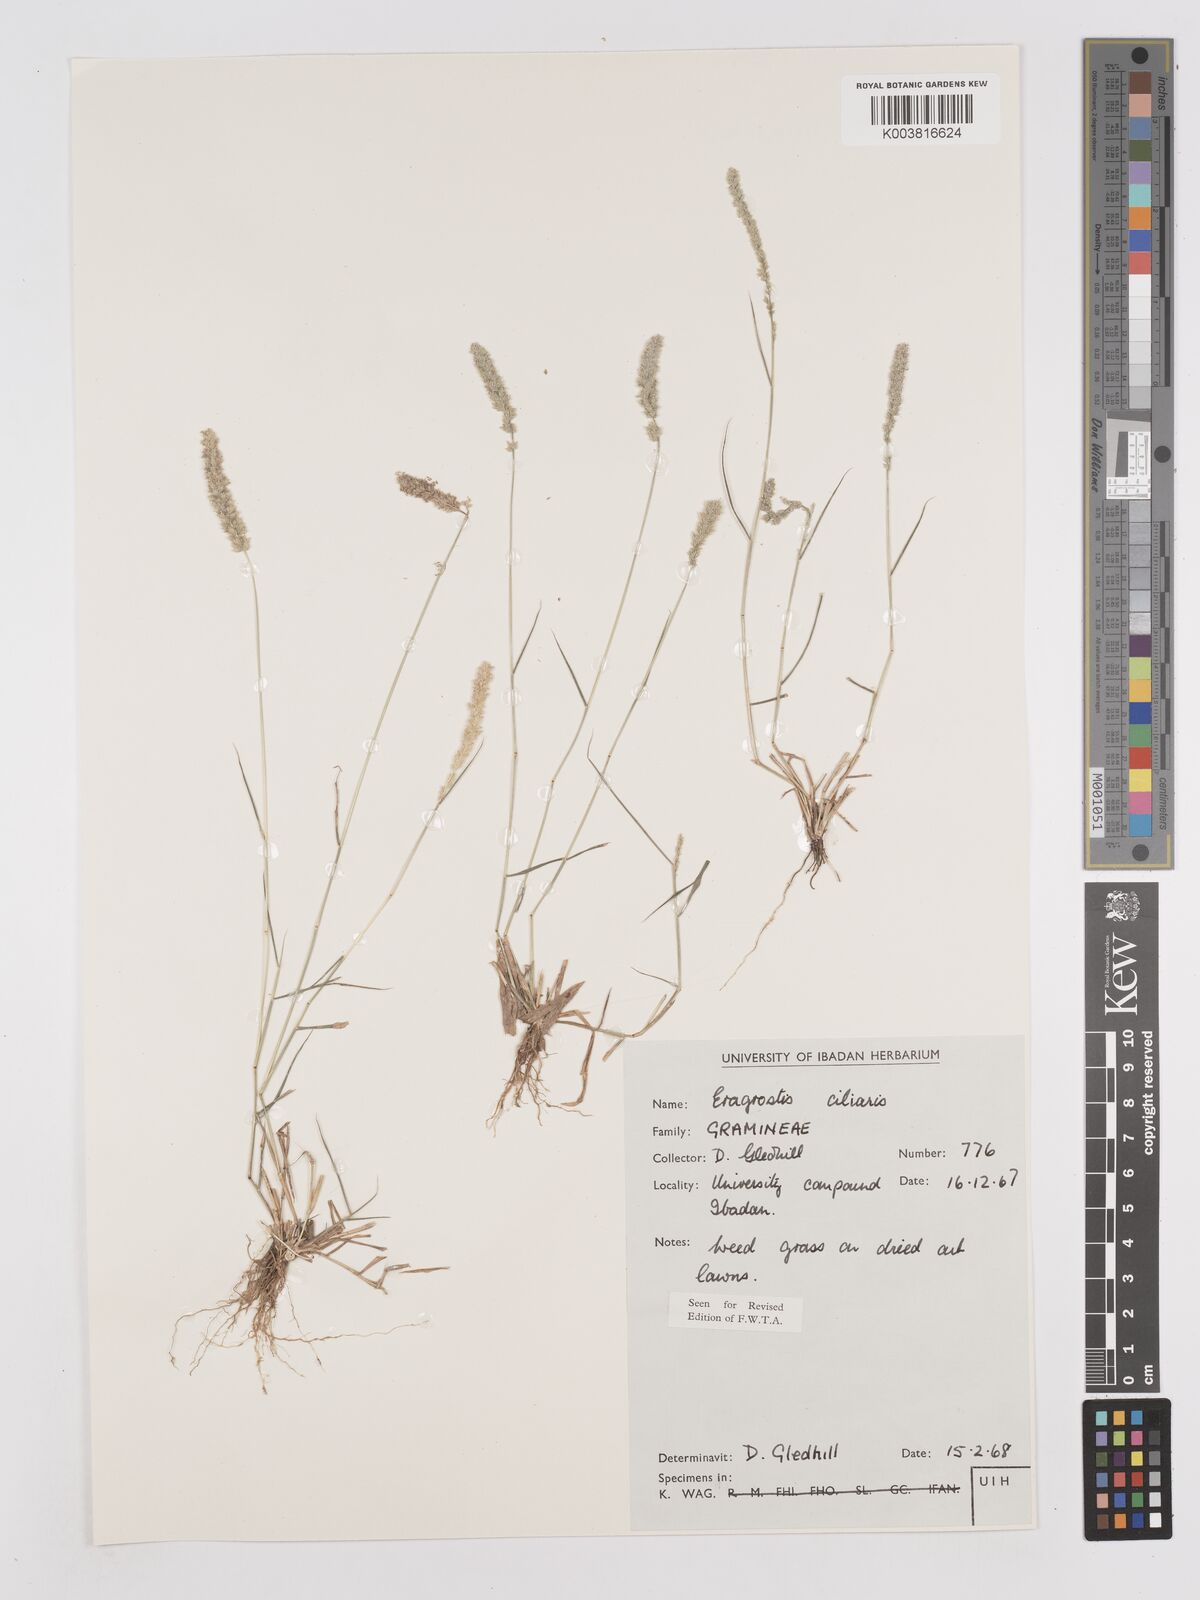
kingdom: Plantae
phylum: Tracheophyta
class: Liliopsida
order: Poales
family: Poaceae
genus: Eragrostis
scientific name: Eragrostis ciliaris
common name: Gophertail lovegrass
